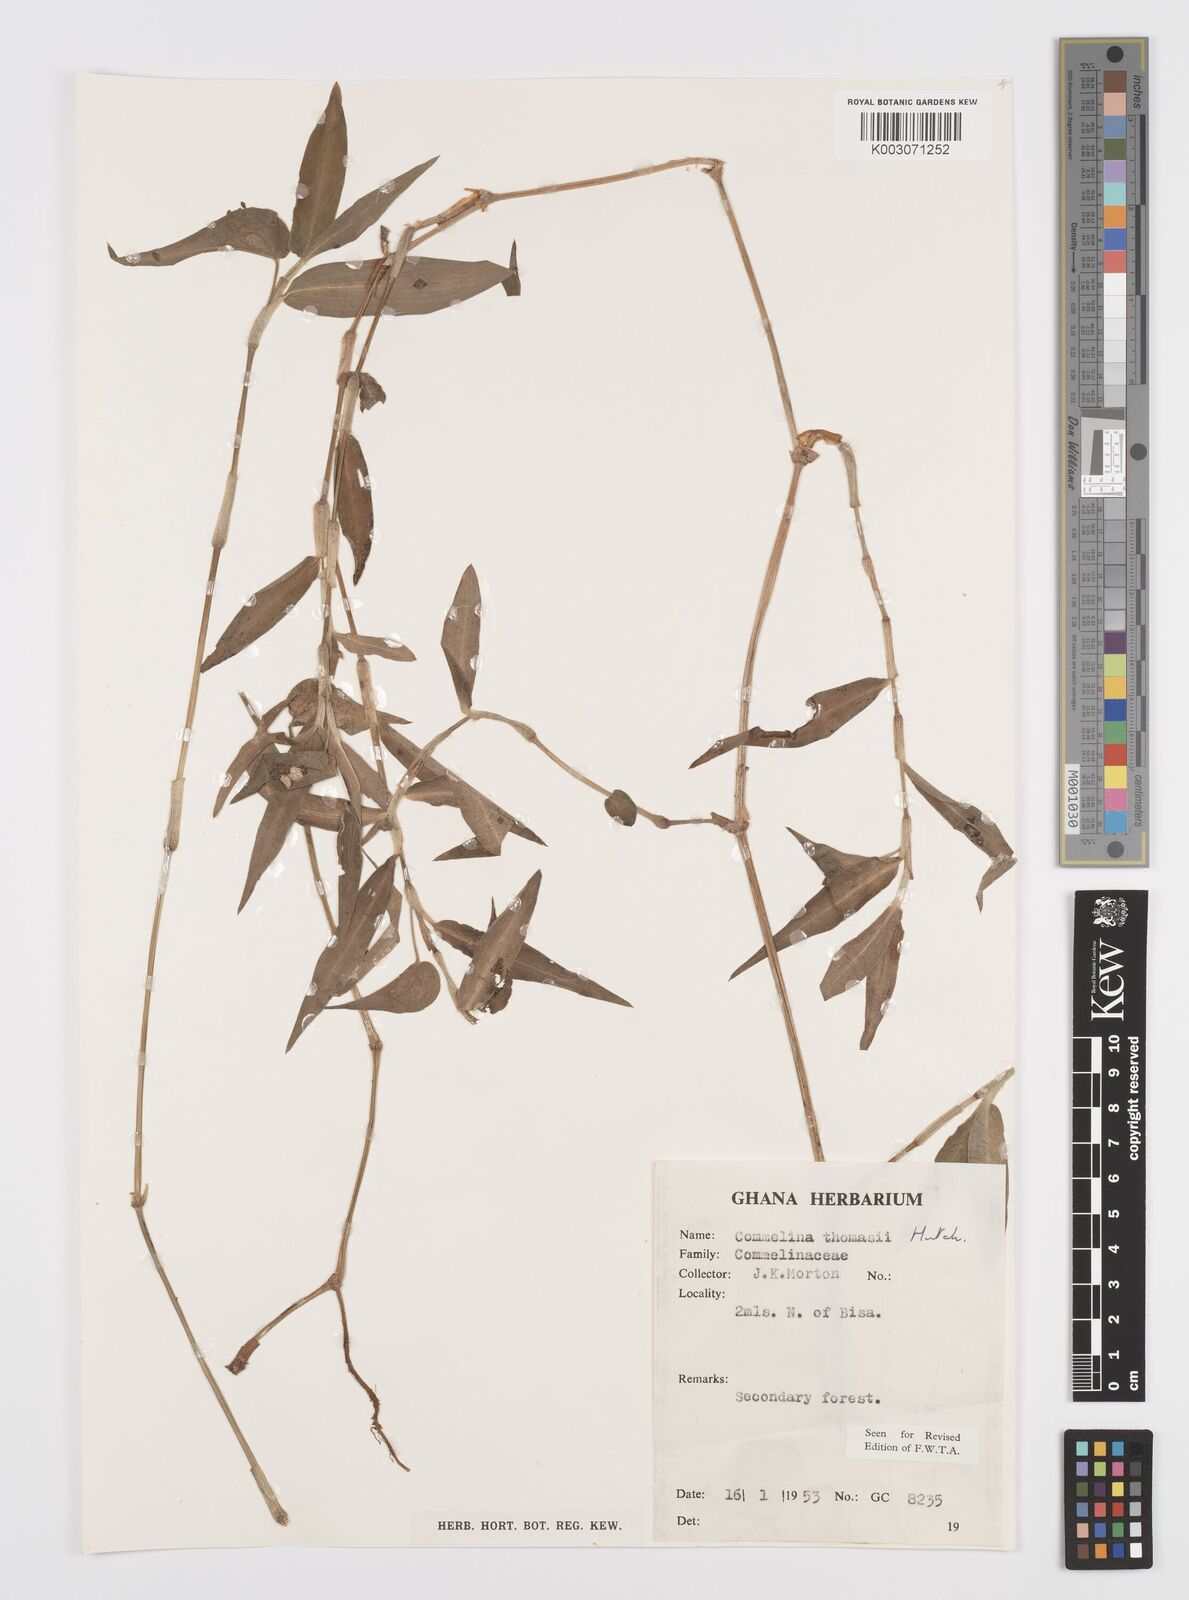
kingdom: Plantae
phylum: Tracheophyta
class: Liliopsida
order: Commelinales
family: Commelinaceae
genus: Commelina
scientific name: Commelina acutispatha
